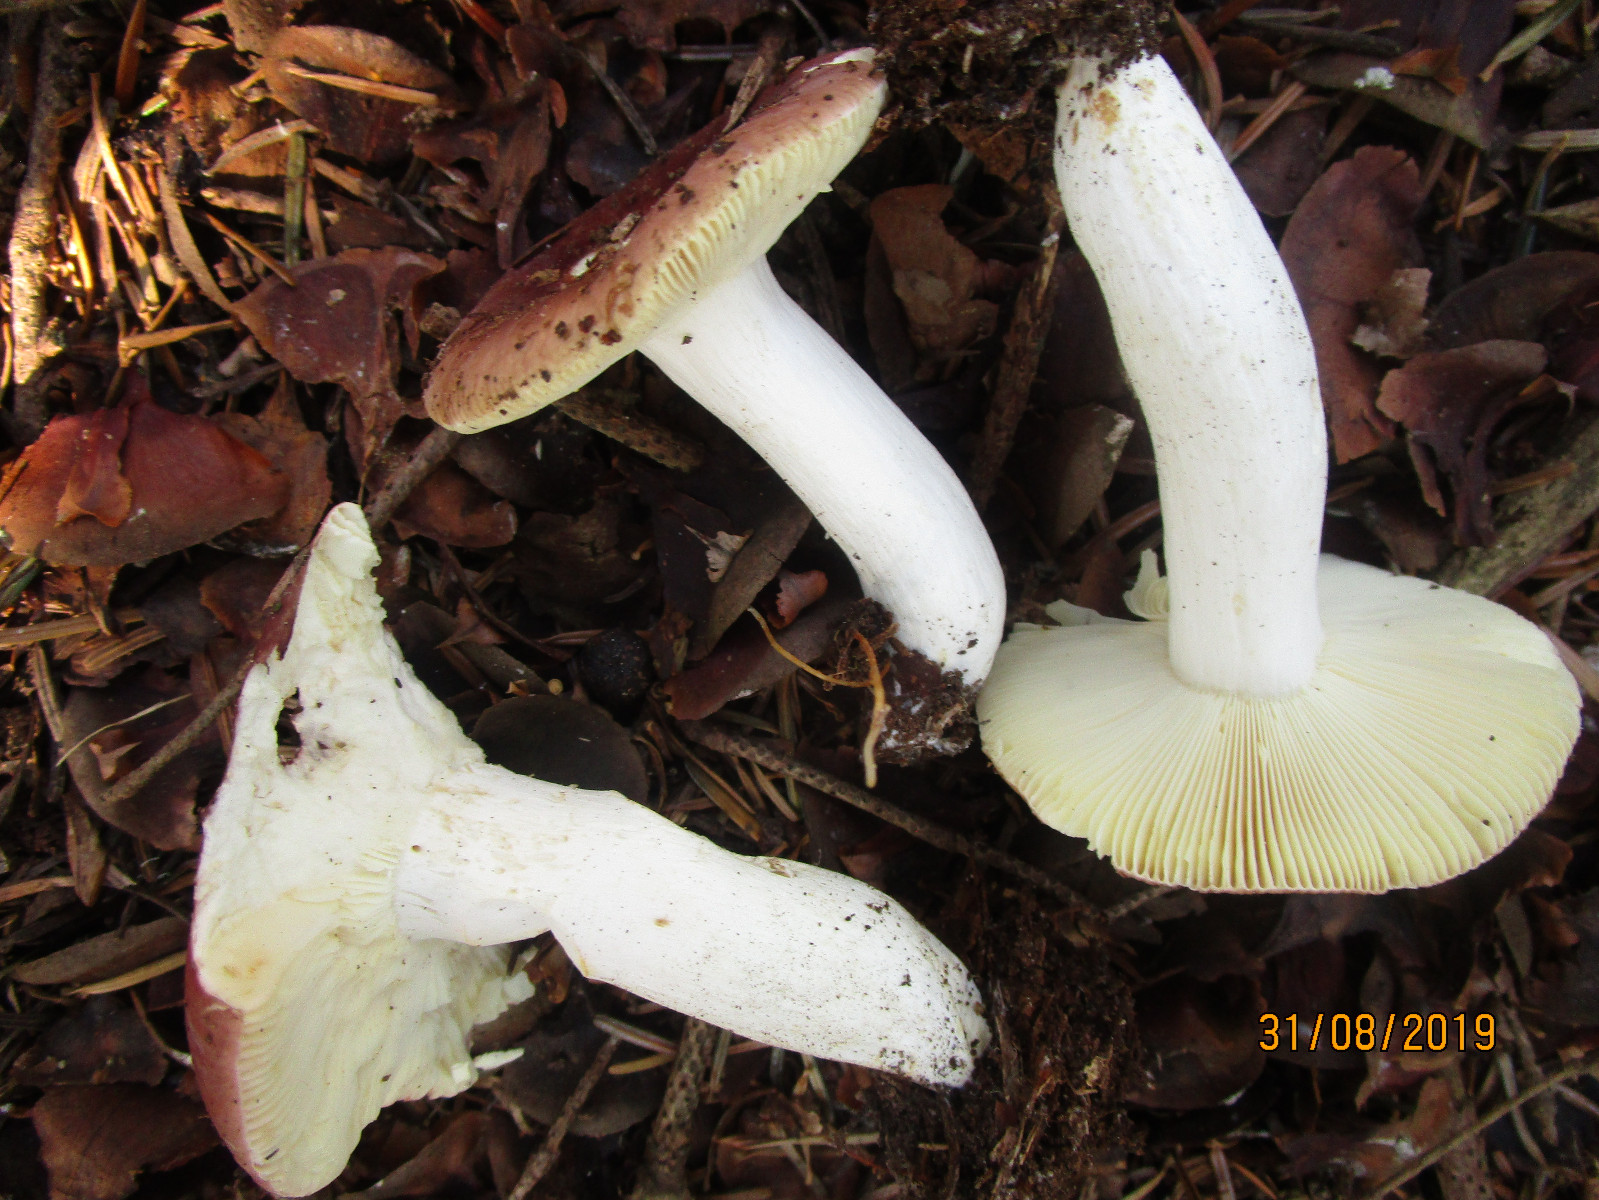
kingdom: Fungi
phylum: Basidiomycota
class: Agaricomycetes
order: Russulales
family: Russulaceae
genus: Russula
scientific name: Russula badia
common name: peber-skørhat
